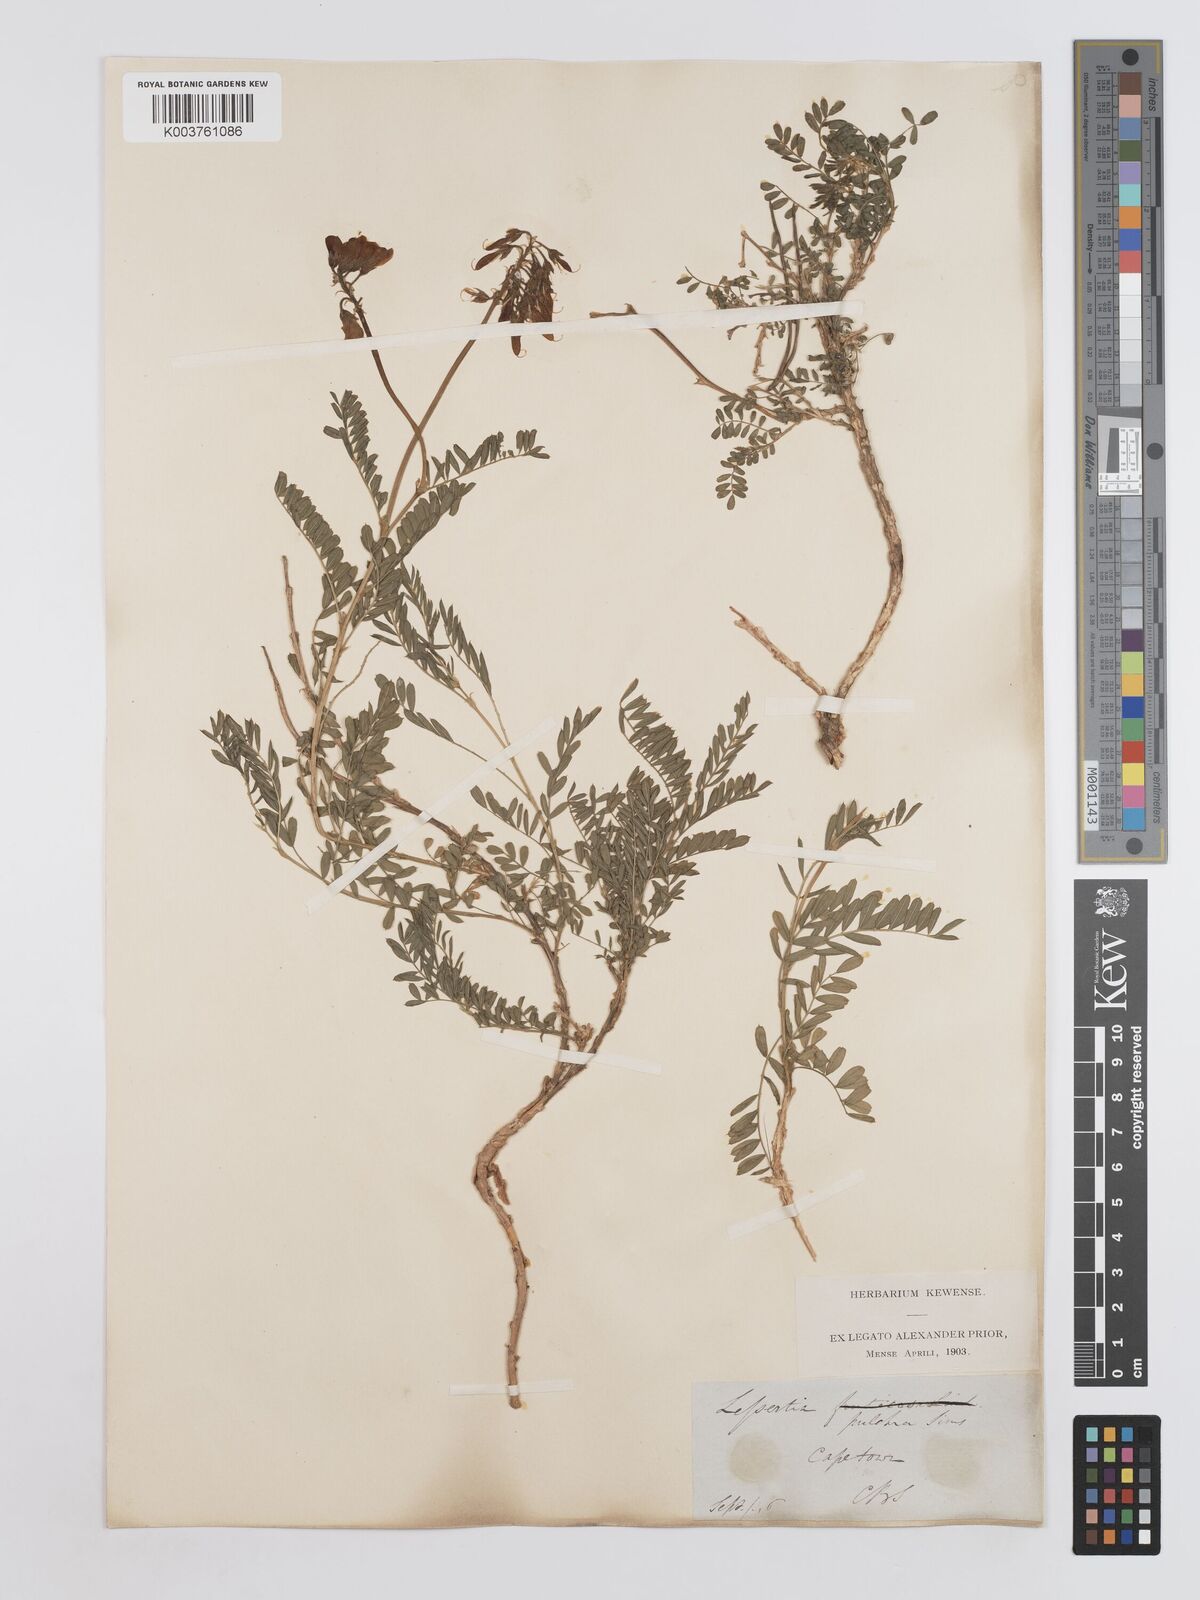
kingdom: Plantae
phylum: Tracheophyta
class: Magnoliopsida
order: Fabales
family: Fabaceae
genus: Lessertia
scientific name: Lessertia capensis
